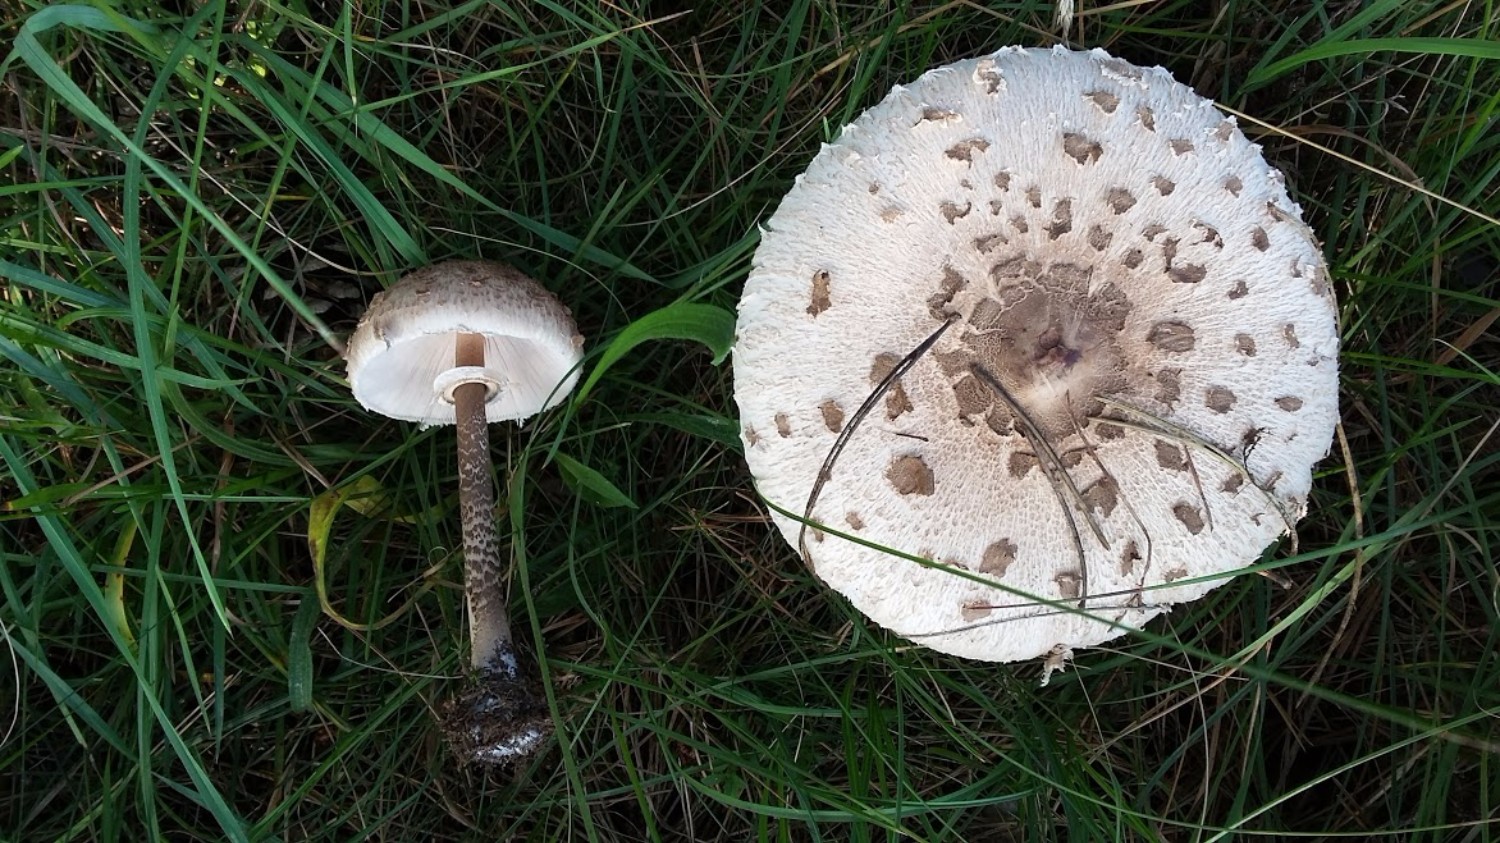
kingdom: Fungi
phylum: Basidiomycota
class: Agaricomycetes
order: Agaricales
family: Agaricaceae
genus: Macrolepiota
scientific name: Macrolepiota procera
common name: stor kæmpeparasolhat
